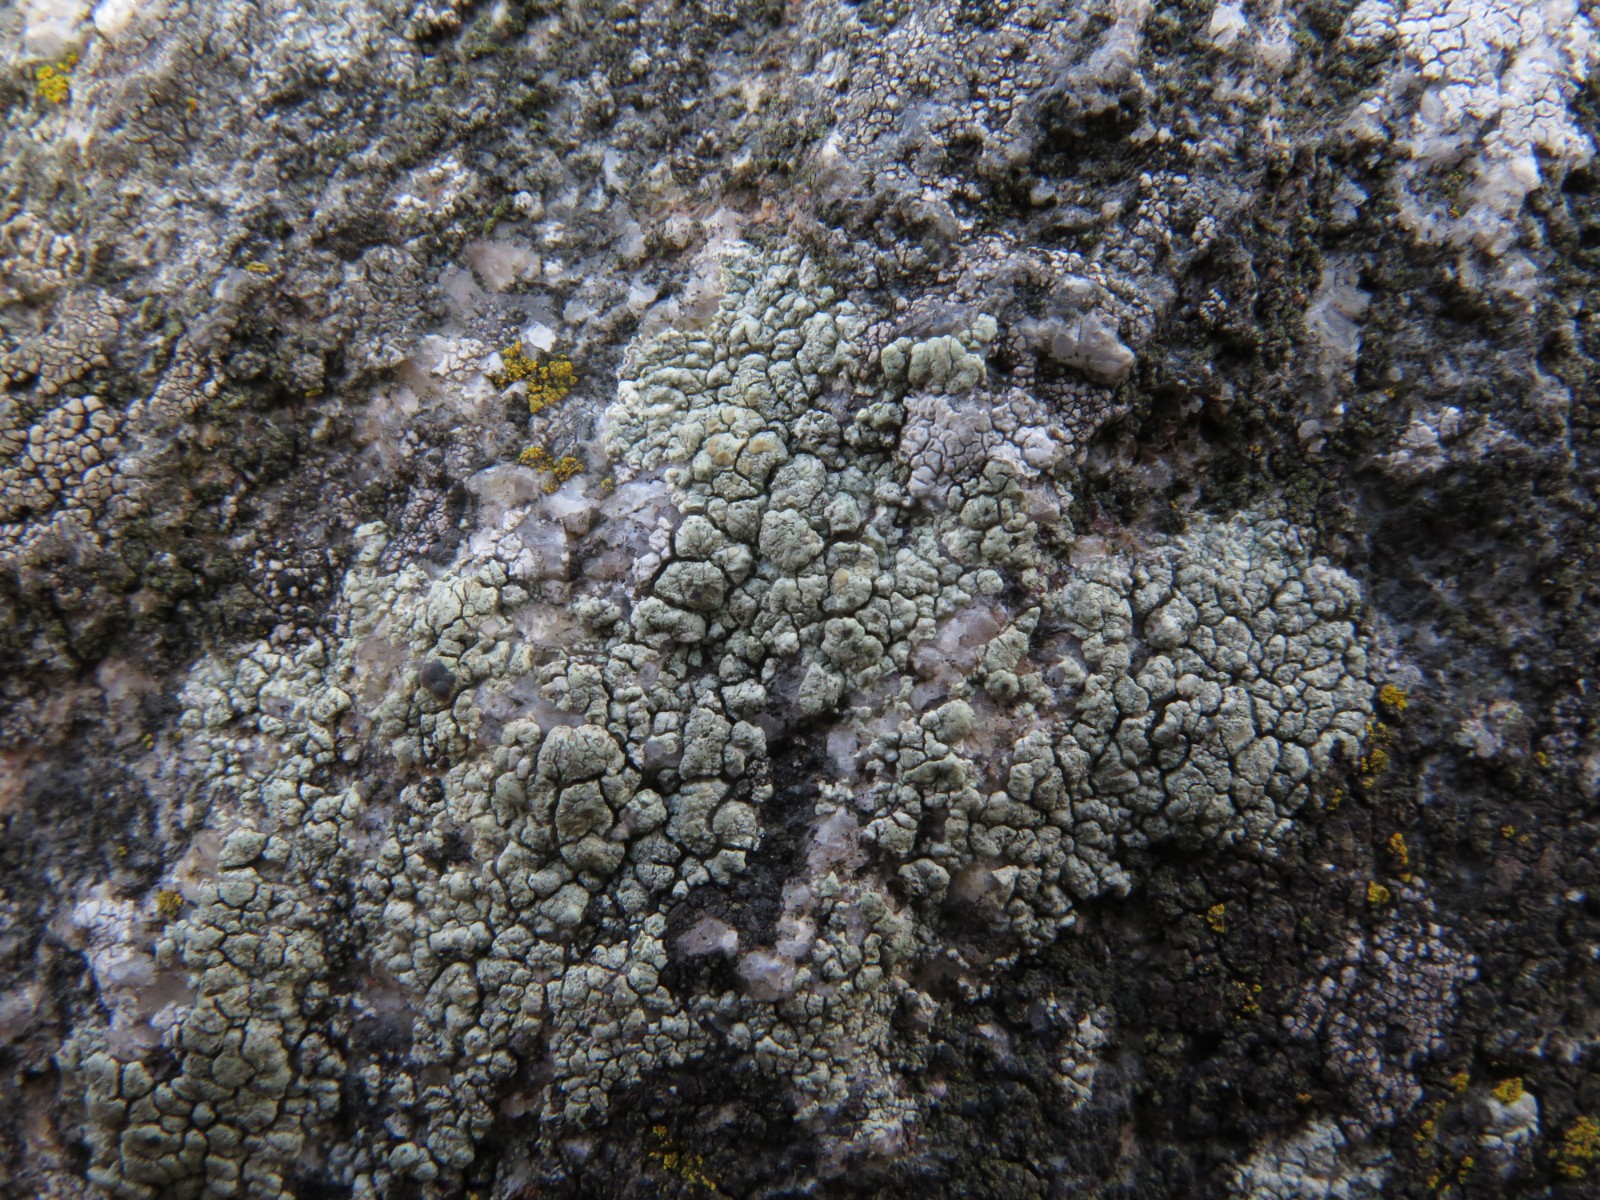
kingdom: Fungi
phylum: Ascomycota
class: Lecanoromycetes
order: Lecanorales
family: Lecanoraceae
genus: Glaucomaria
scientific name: Glaucomaria sulphurea
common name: svovlgul kantskivelav
